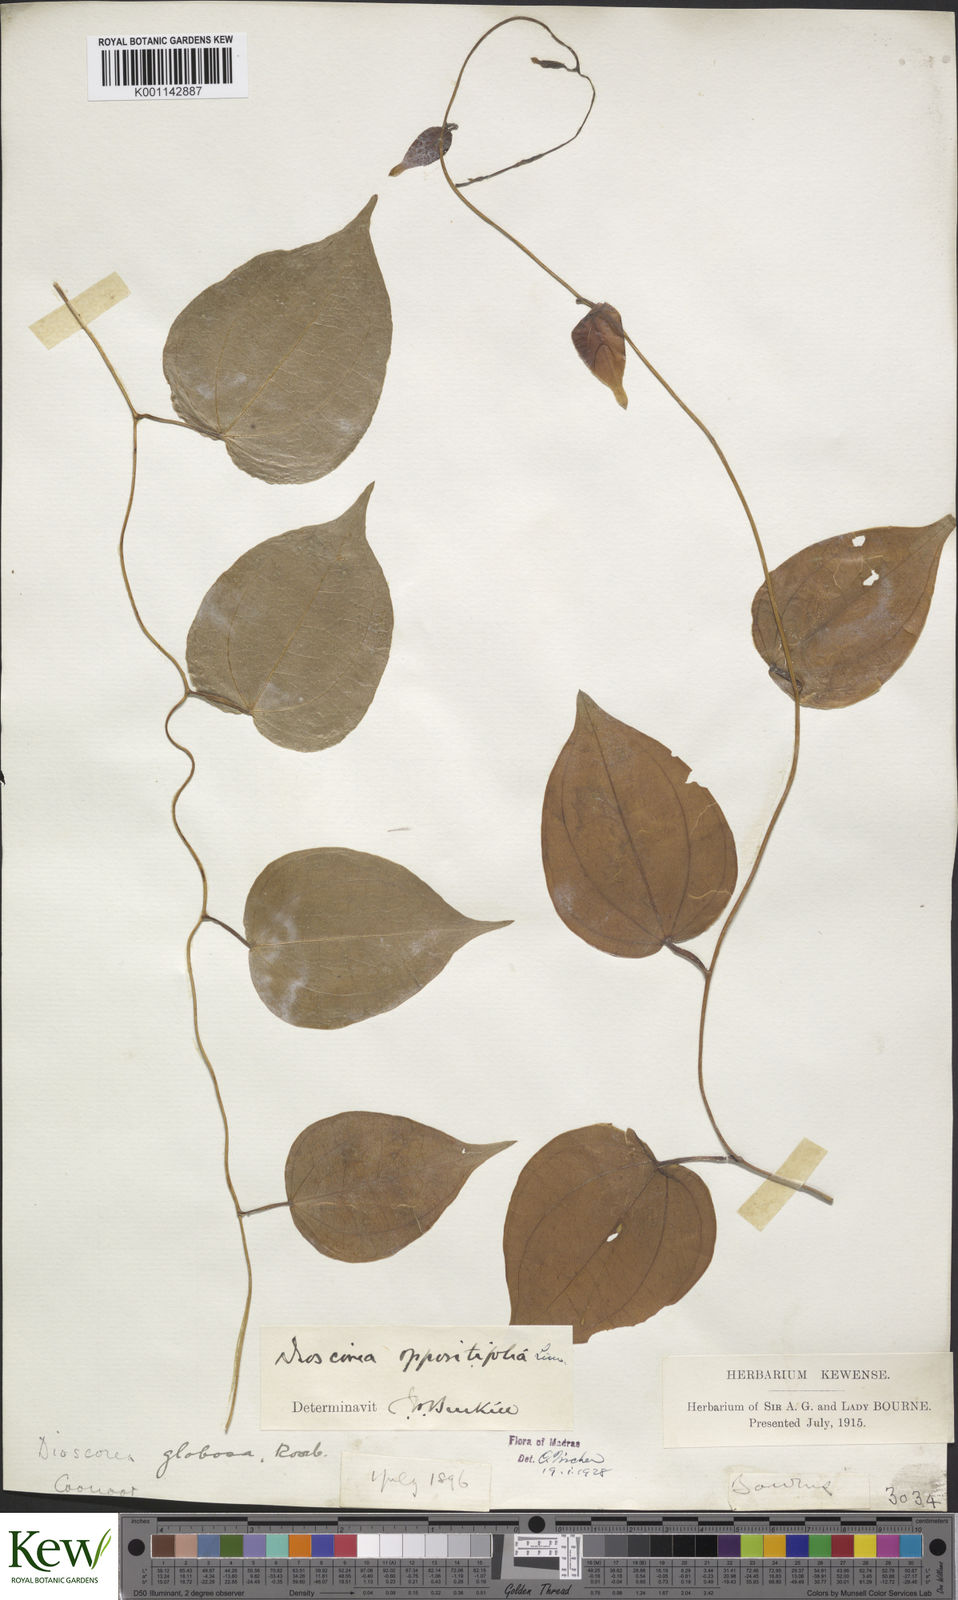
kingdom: Plantae
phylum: Tracheophyta
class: Liliopsida
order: Dioscoreales
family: Dioscoreaceae
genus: Dioscorea
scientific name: Dioscorea oppositifolia
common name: Chinese yam
